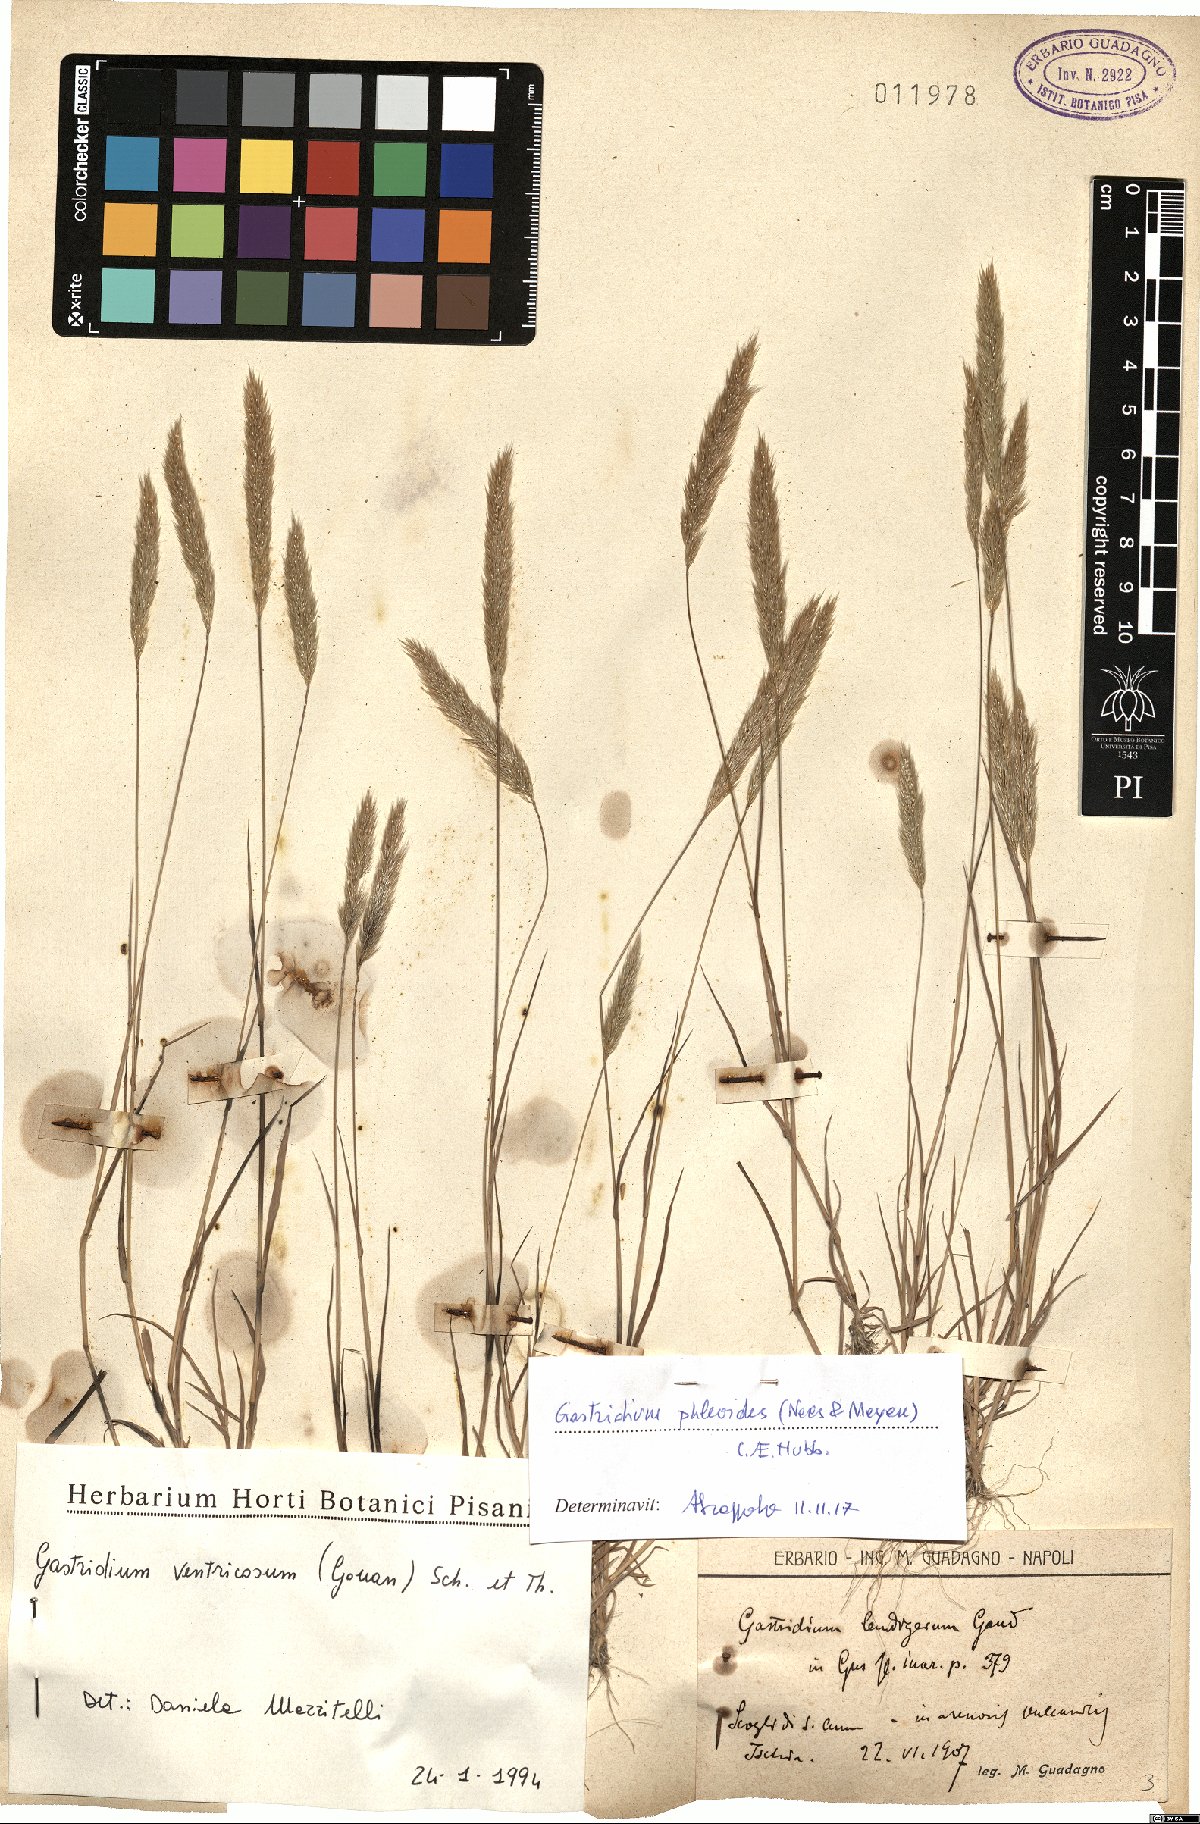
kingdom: Plantae
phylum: Tracheophyta
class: Liliopsida
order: Poales
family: Poaceae
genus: Gastridium
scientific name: Gastridium phleoides
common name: Nit grass
